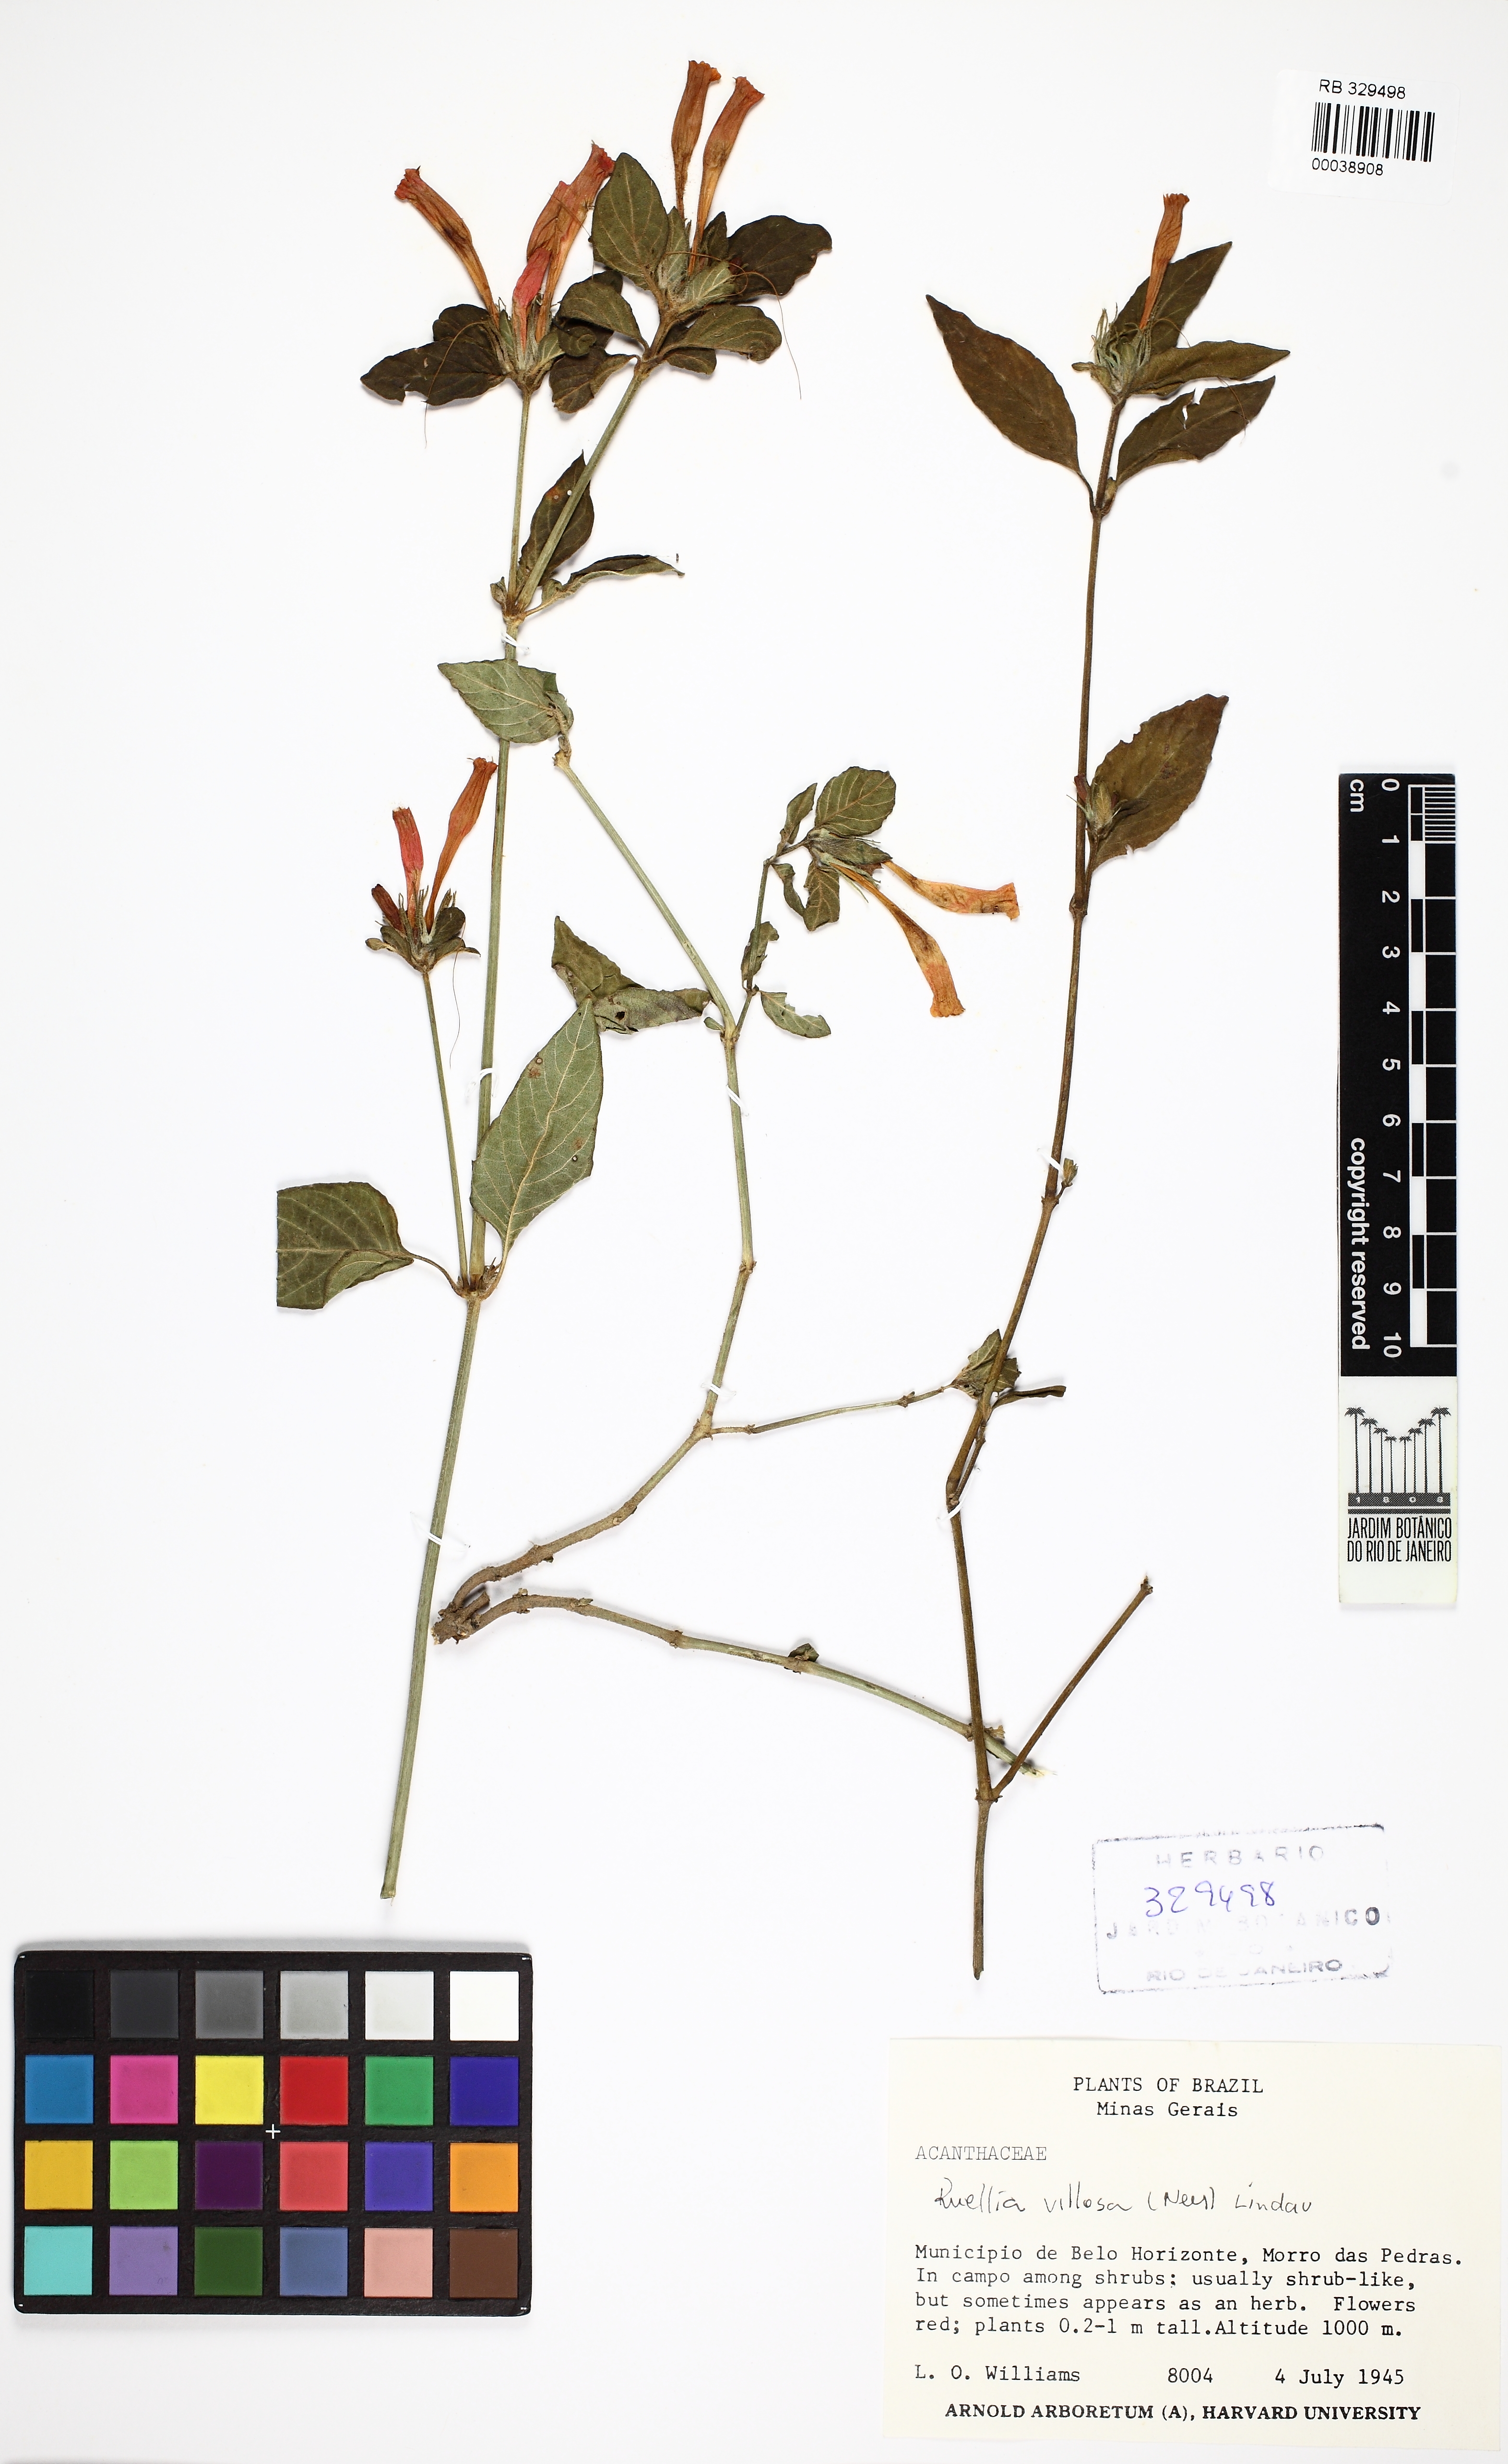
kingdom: Plantae
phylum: Tracheophyta
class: Magnoliopsida
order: Lamiales
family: Acanthaceae
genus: Ruellia
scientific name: Ruellia villosa
